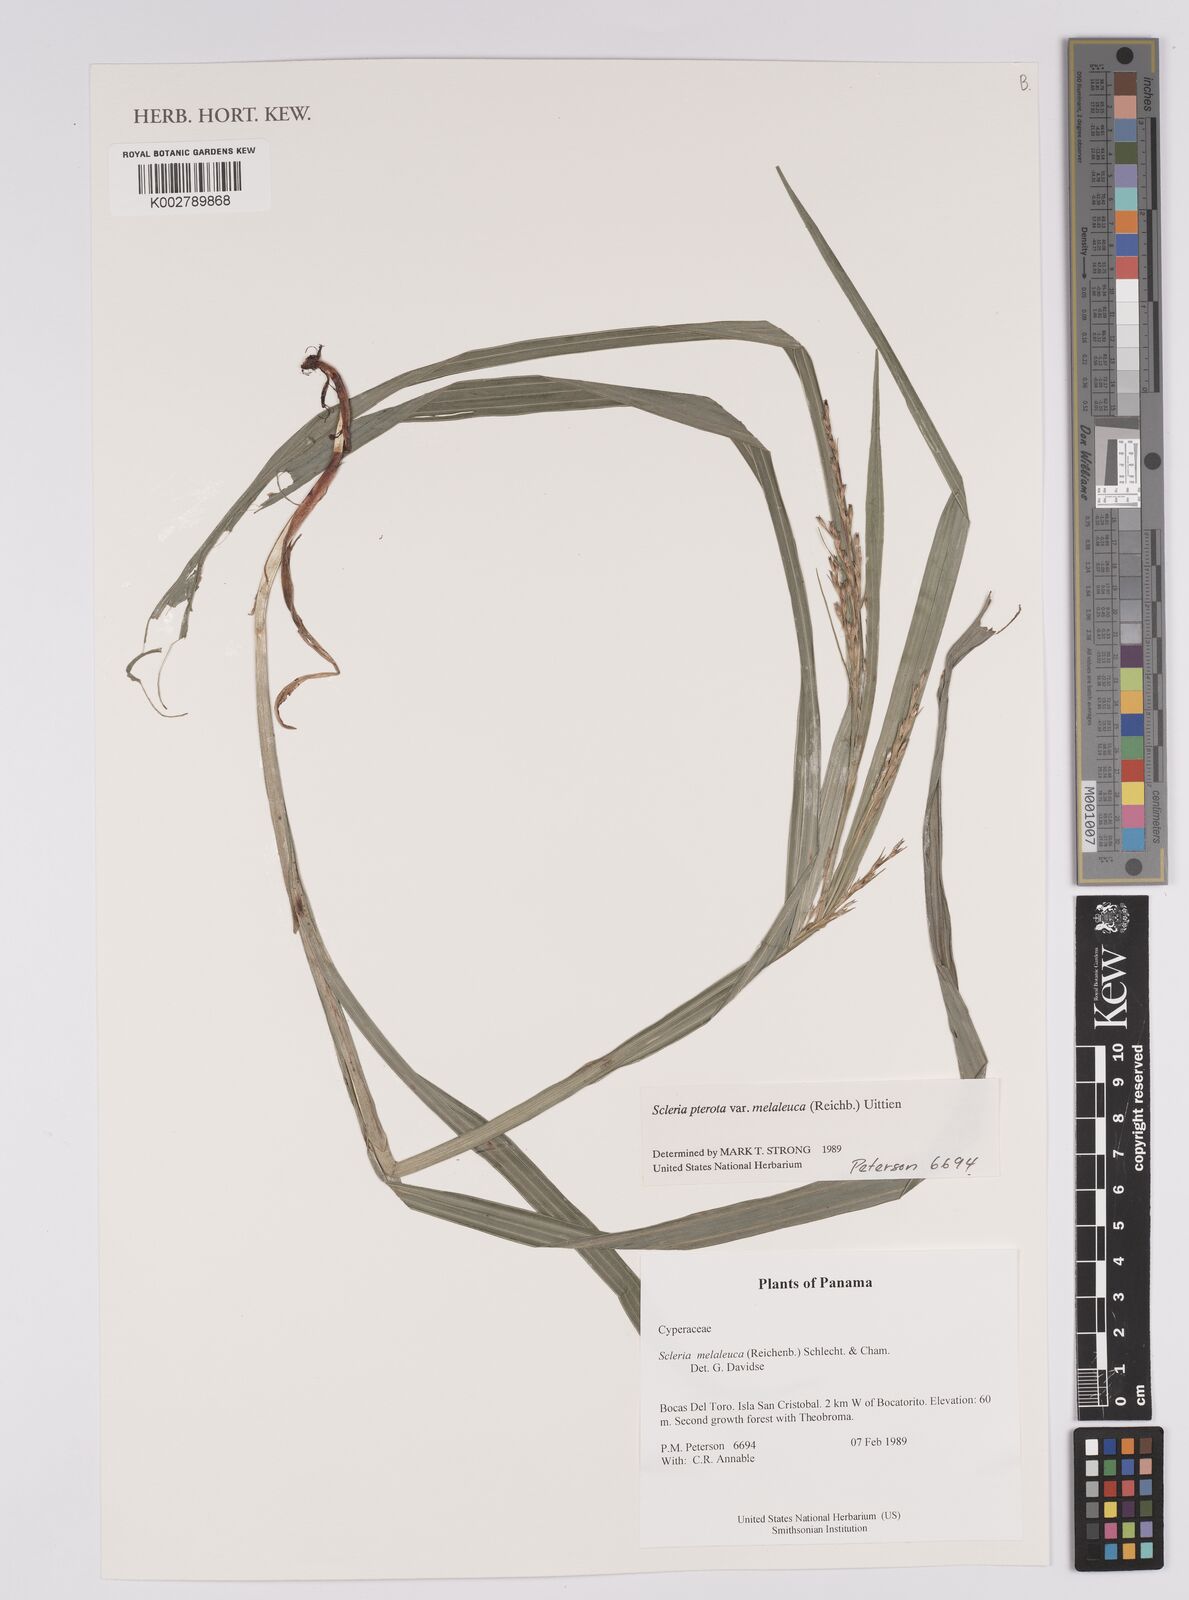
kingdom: Plantae
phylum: Tracheophyta
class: Liliopsida
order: Poales
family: Cyperaceae
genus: Scleria
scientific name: Scleria gaertneri
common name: Cortadera blanca
